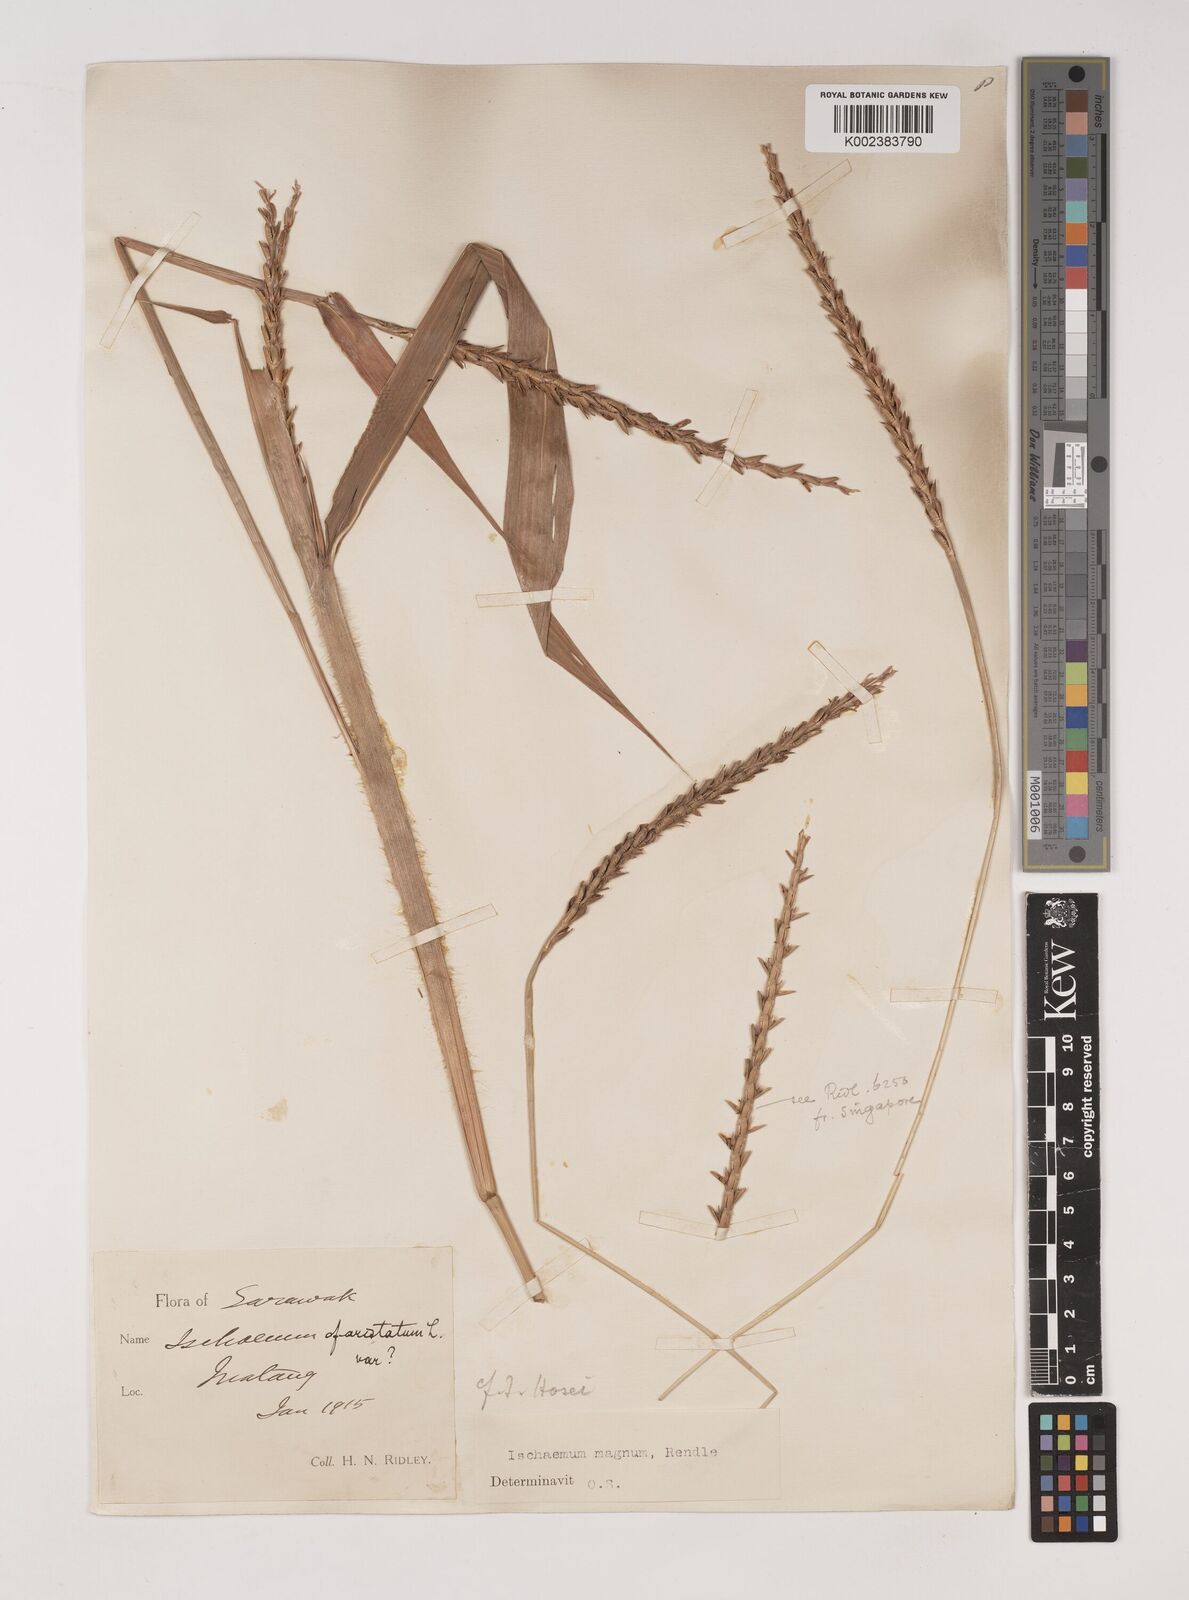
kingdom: Plantae
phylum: Tracheophyta
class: Liliopsida
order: Poales
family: Poaceae
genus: Ischaemum
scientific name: Ischaemum barbatum
